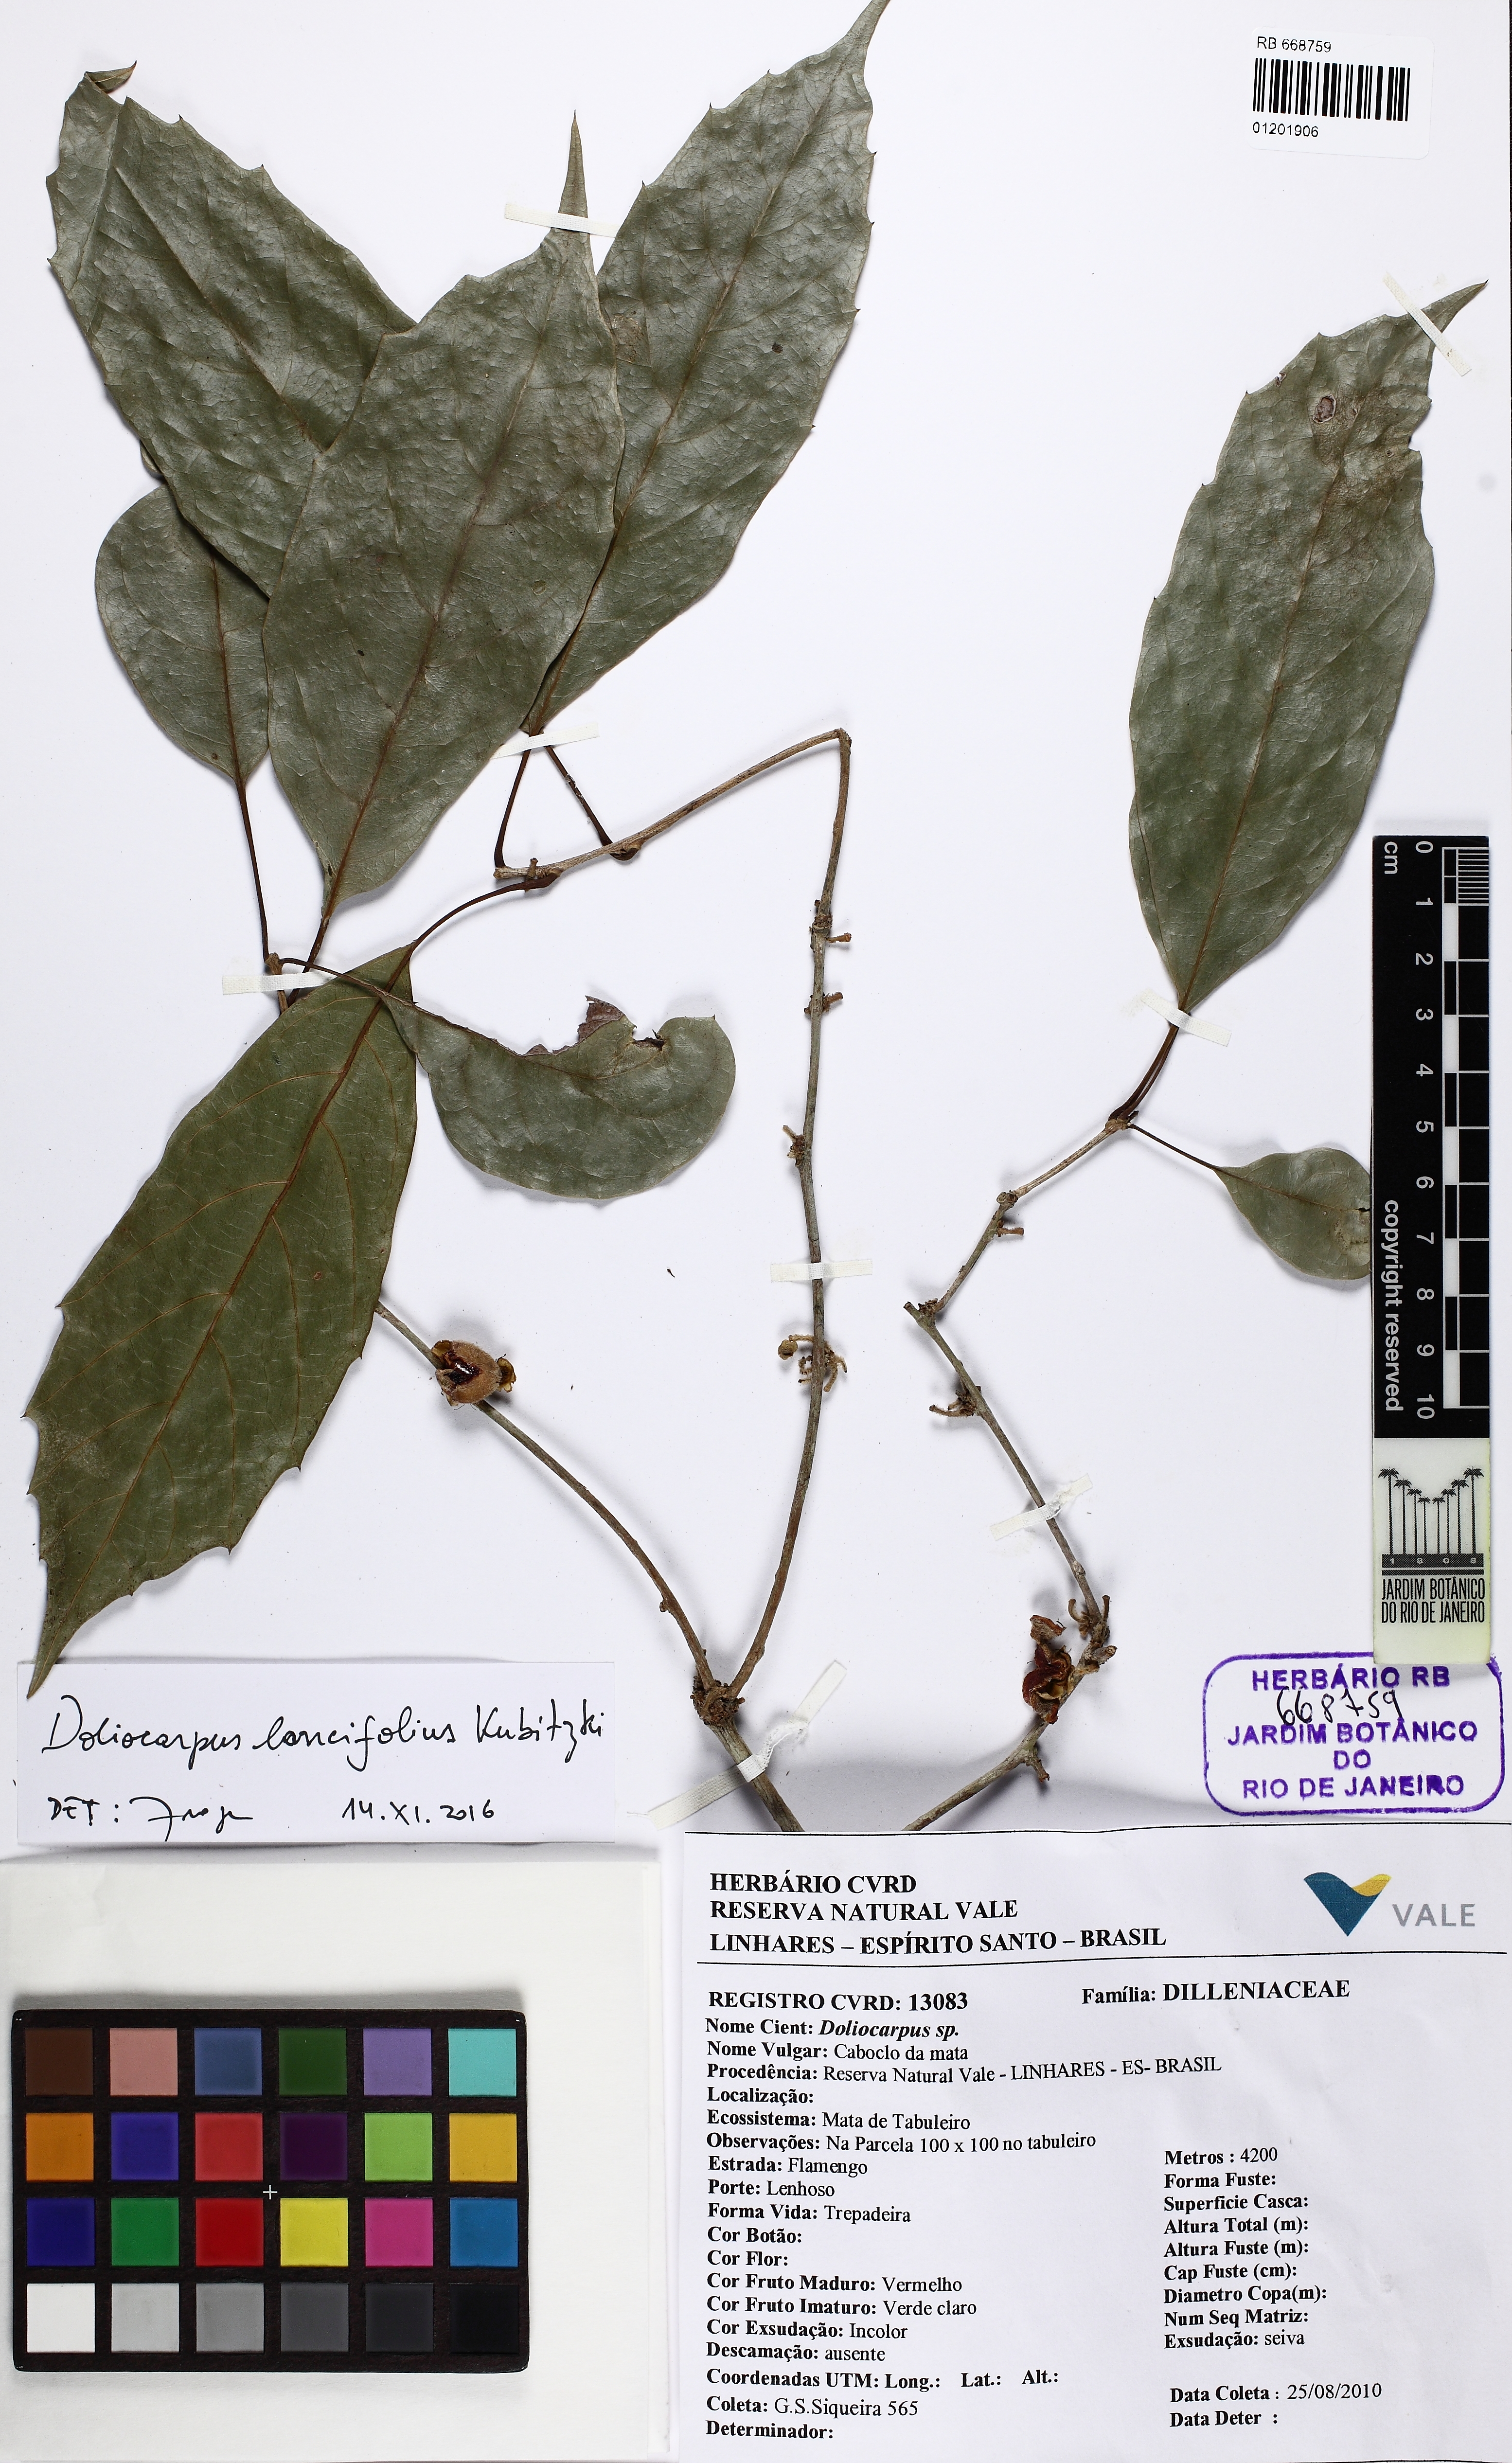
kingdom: Plantae
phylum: Tracheophyta
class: Magnoliopsida
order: Dilleniales
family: Dilleniaceae
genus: Doliocarpus
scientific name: Doliocarpus lancifolius
